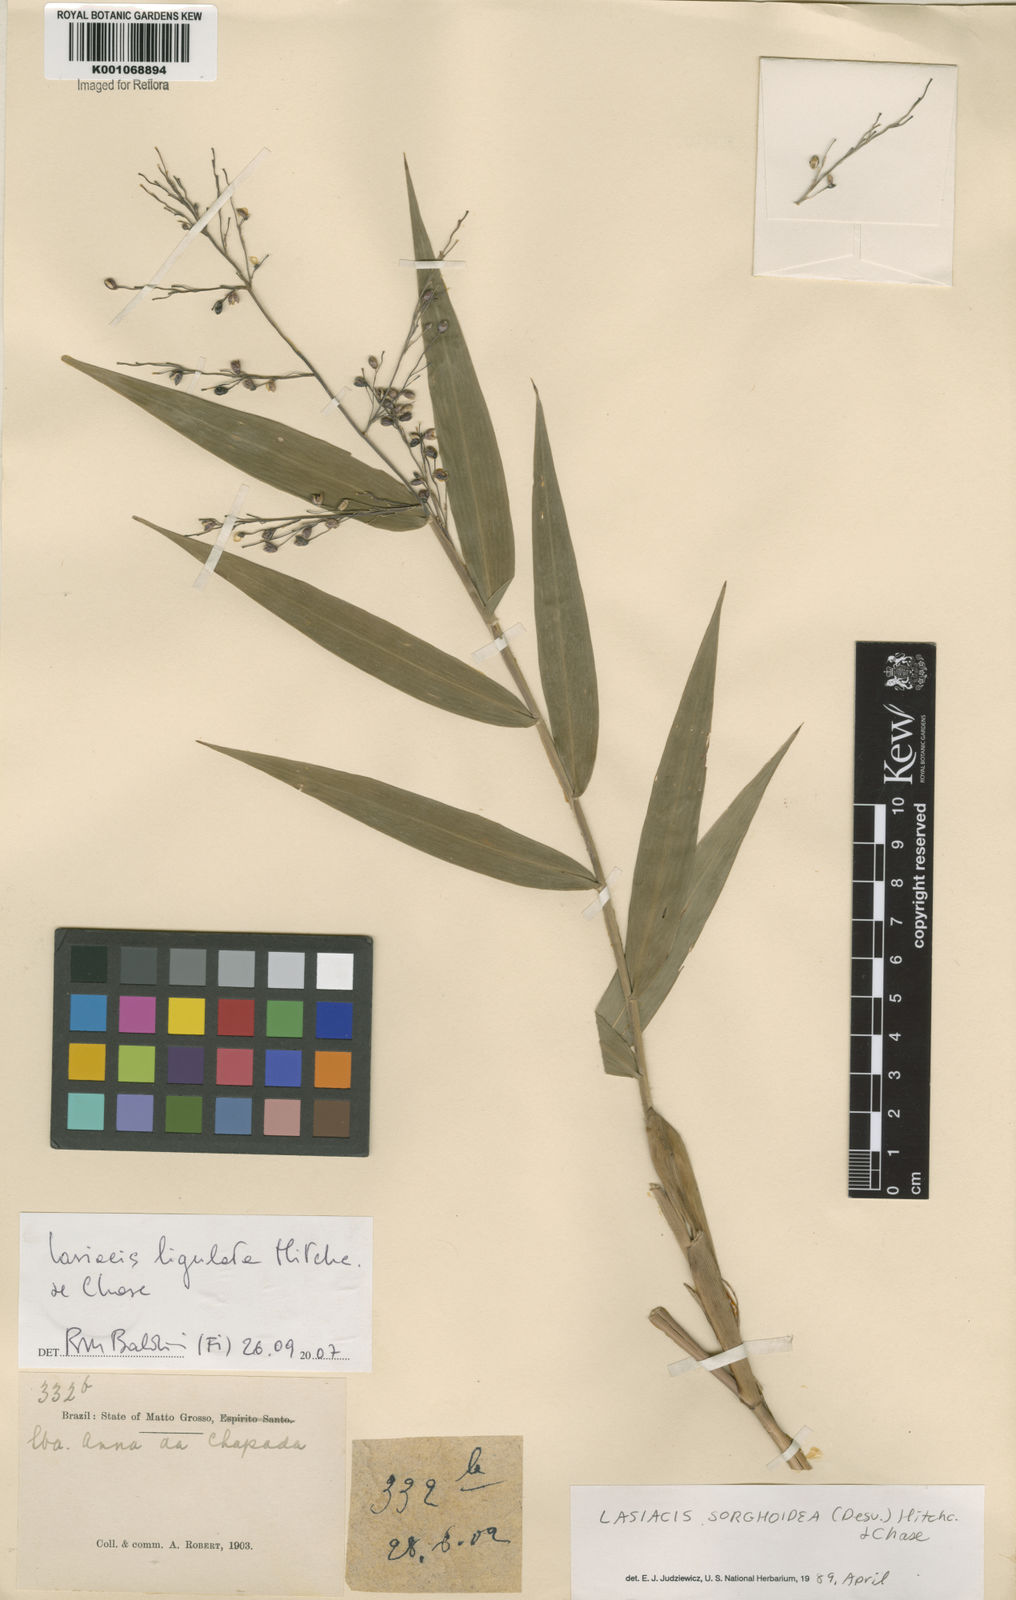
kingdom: Plantae
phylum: Tracheophyta
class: Liliopsida
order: Poales
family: Poaceae
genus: Lasiacis
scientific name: Lasiacis ligulata
